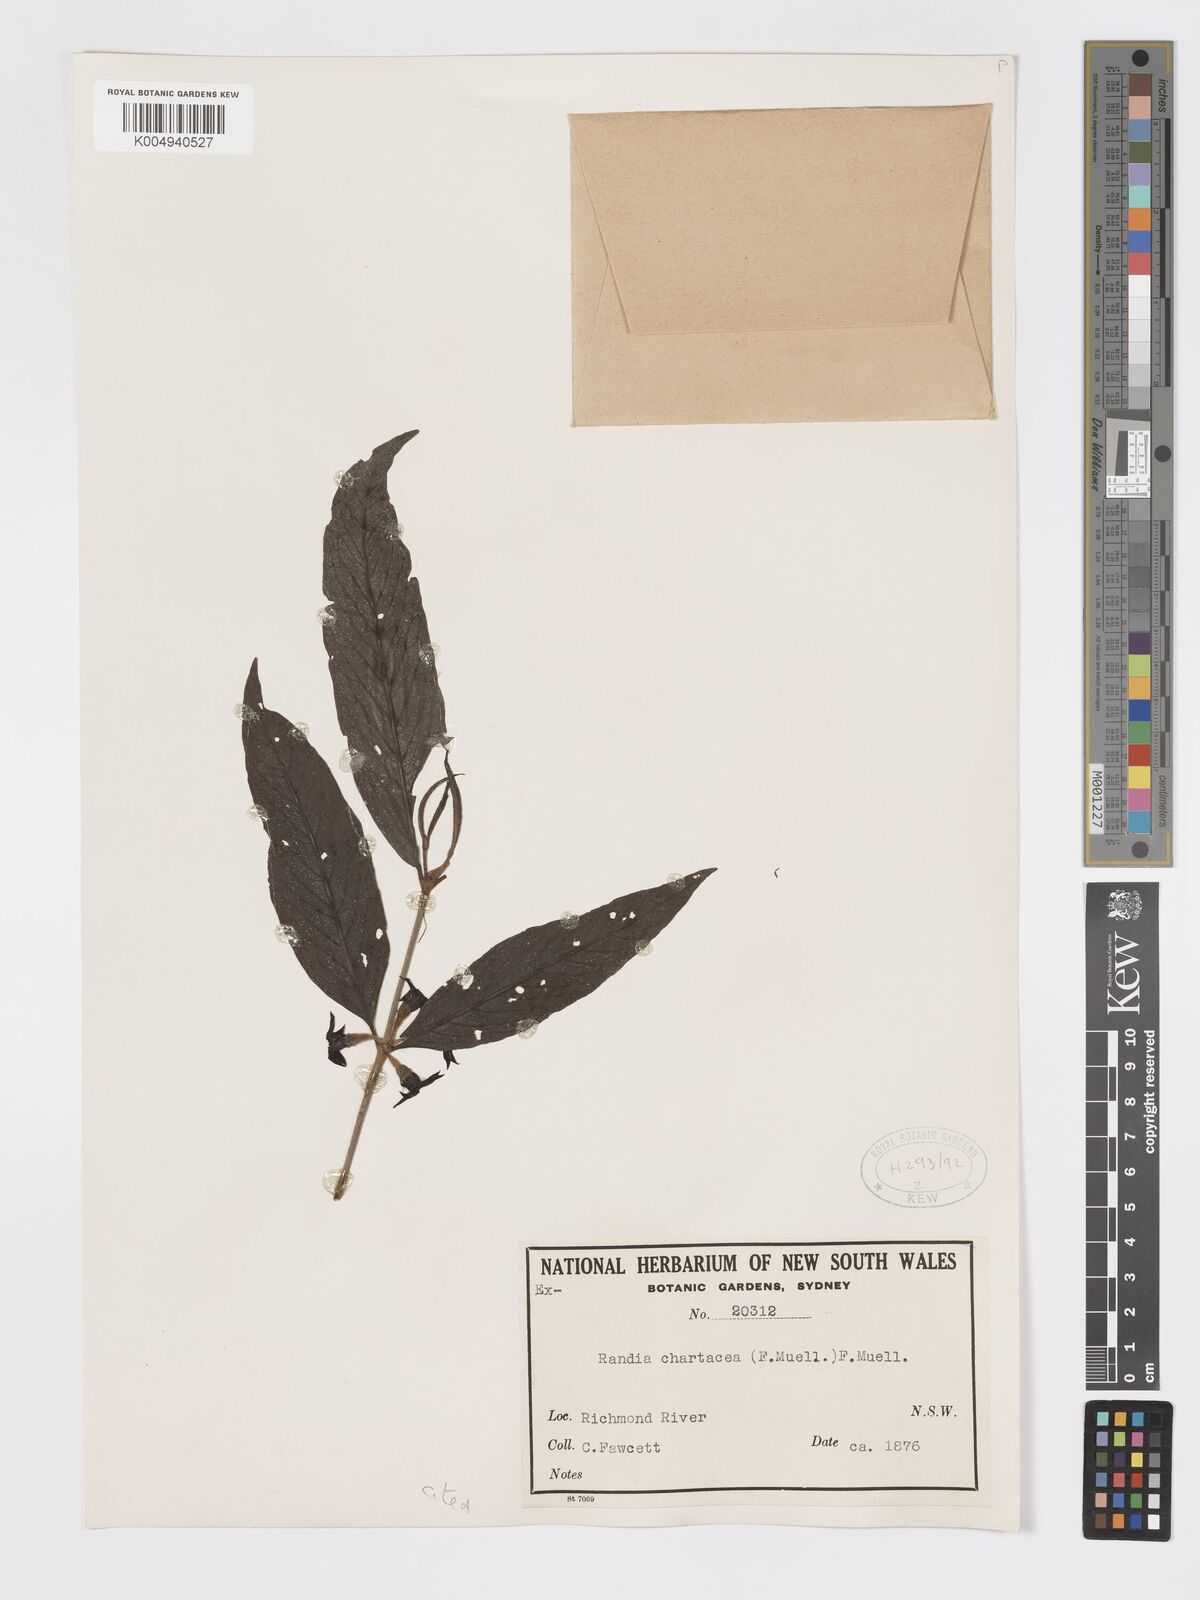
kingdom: Plantae
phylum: Tracheophyta
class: Magnoliopsida
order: Gentianales
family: Rubiaceae
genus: Atractocarpus
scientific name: Atractocarpus chartaceus
